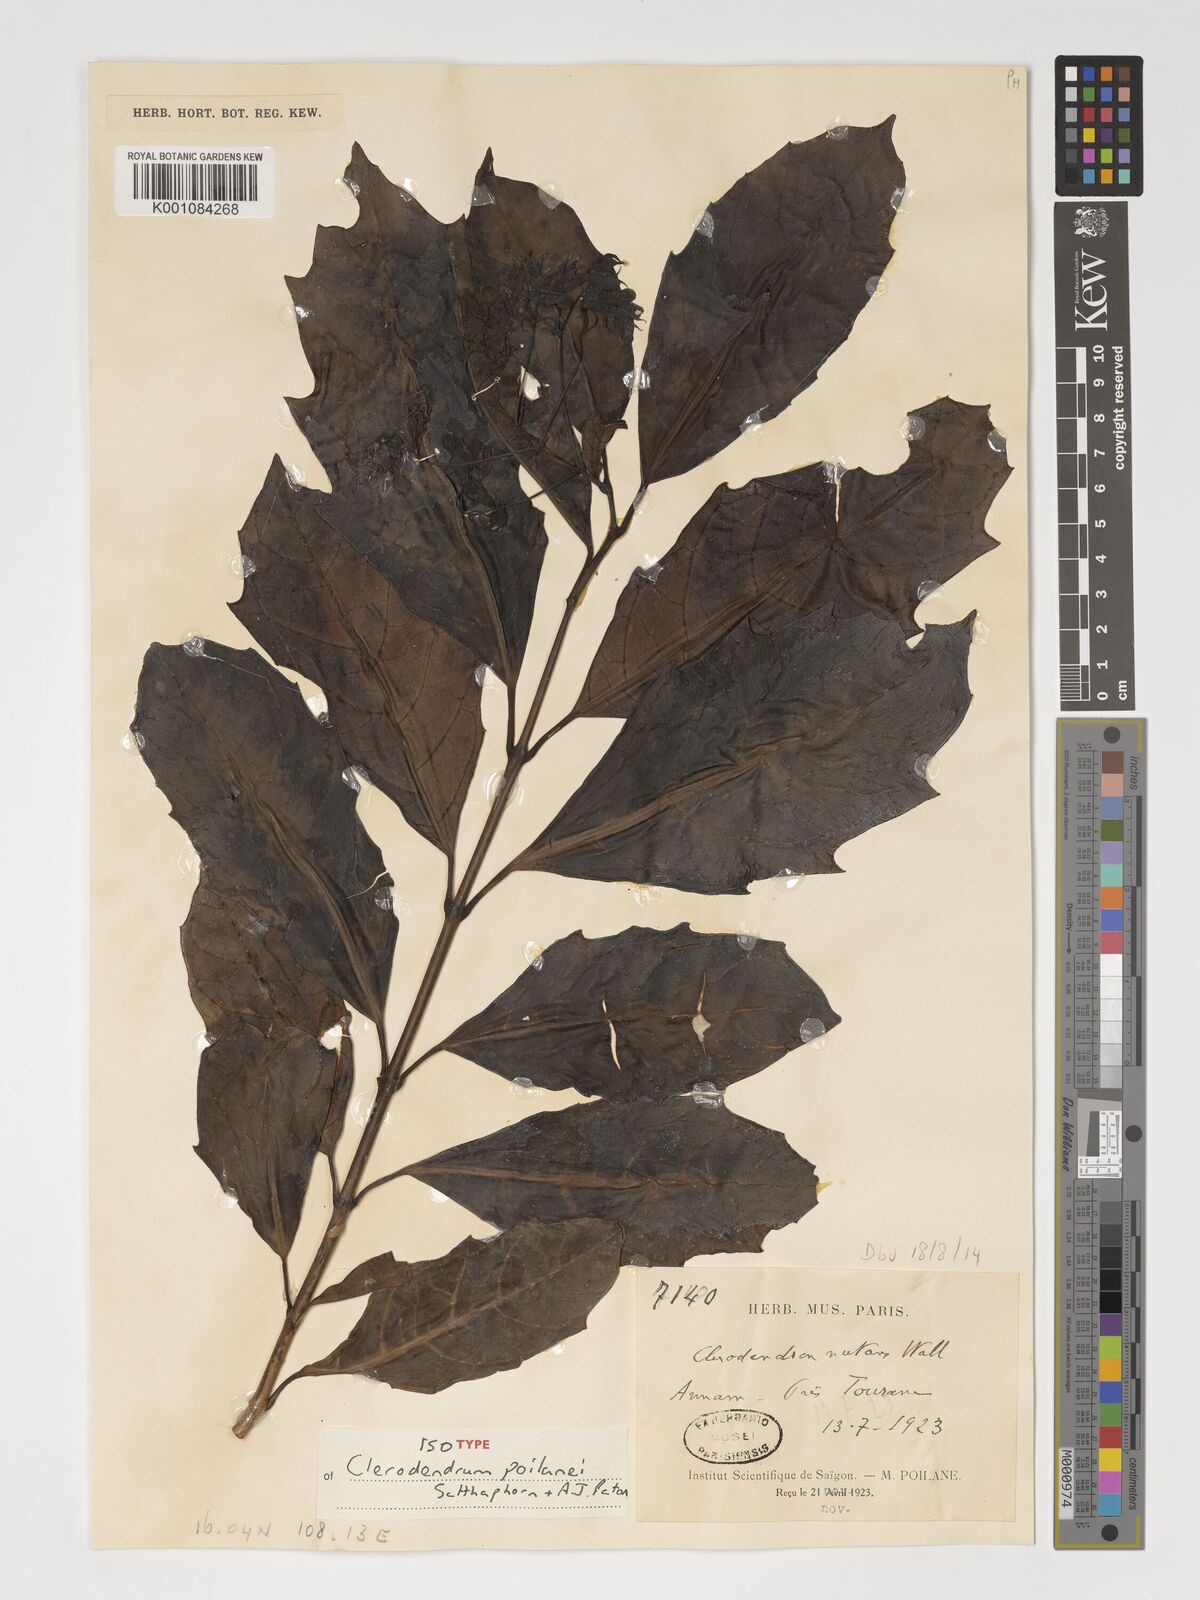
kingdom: Plantae
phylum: Tracheophyta
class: Magnoliopsida
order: Lamiales
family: Lamiaceae
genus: Clerodendrum
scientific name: Clerodendrum
